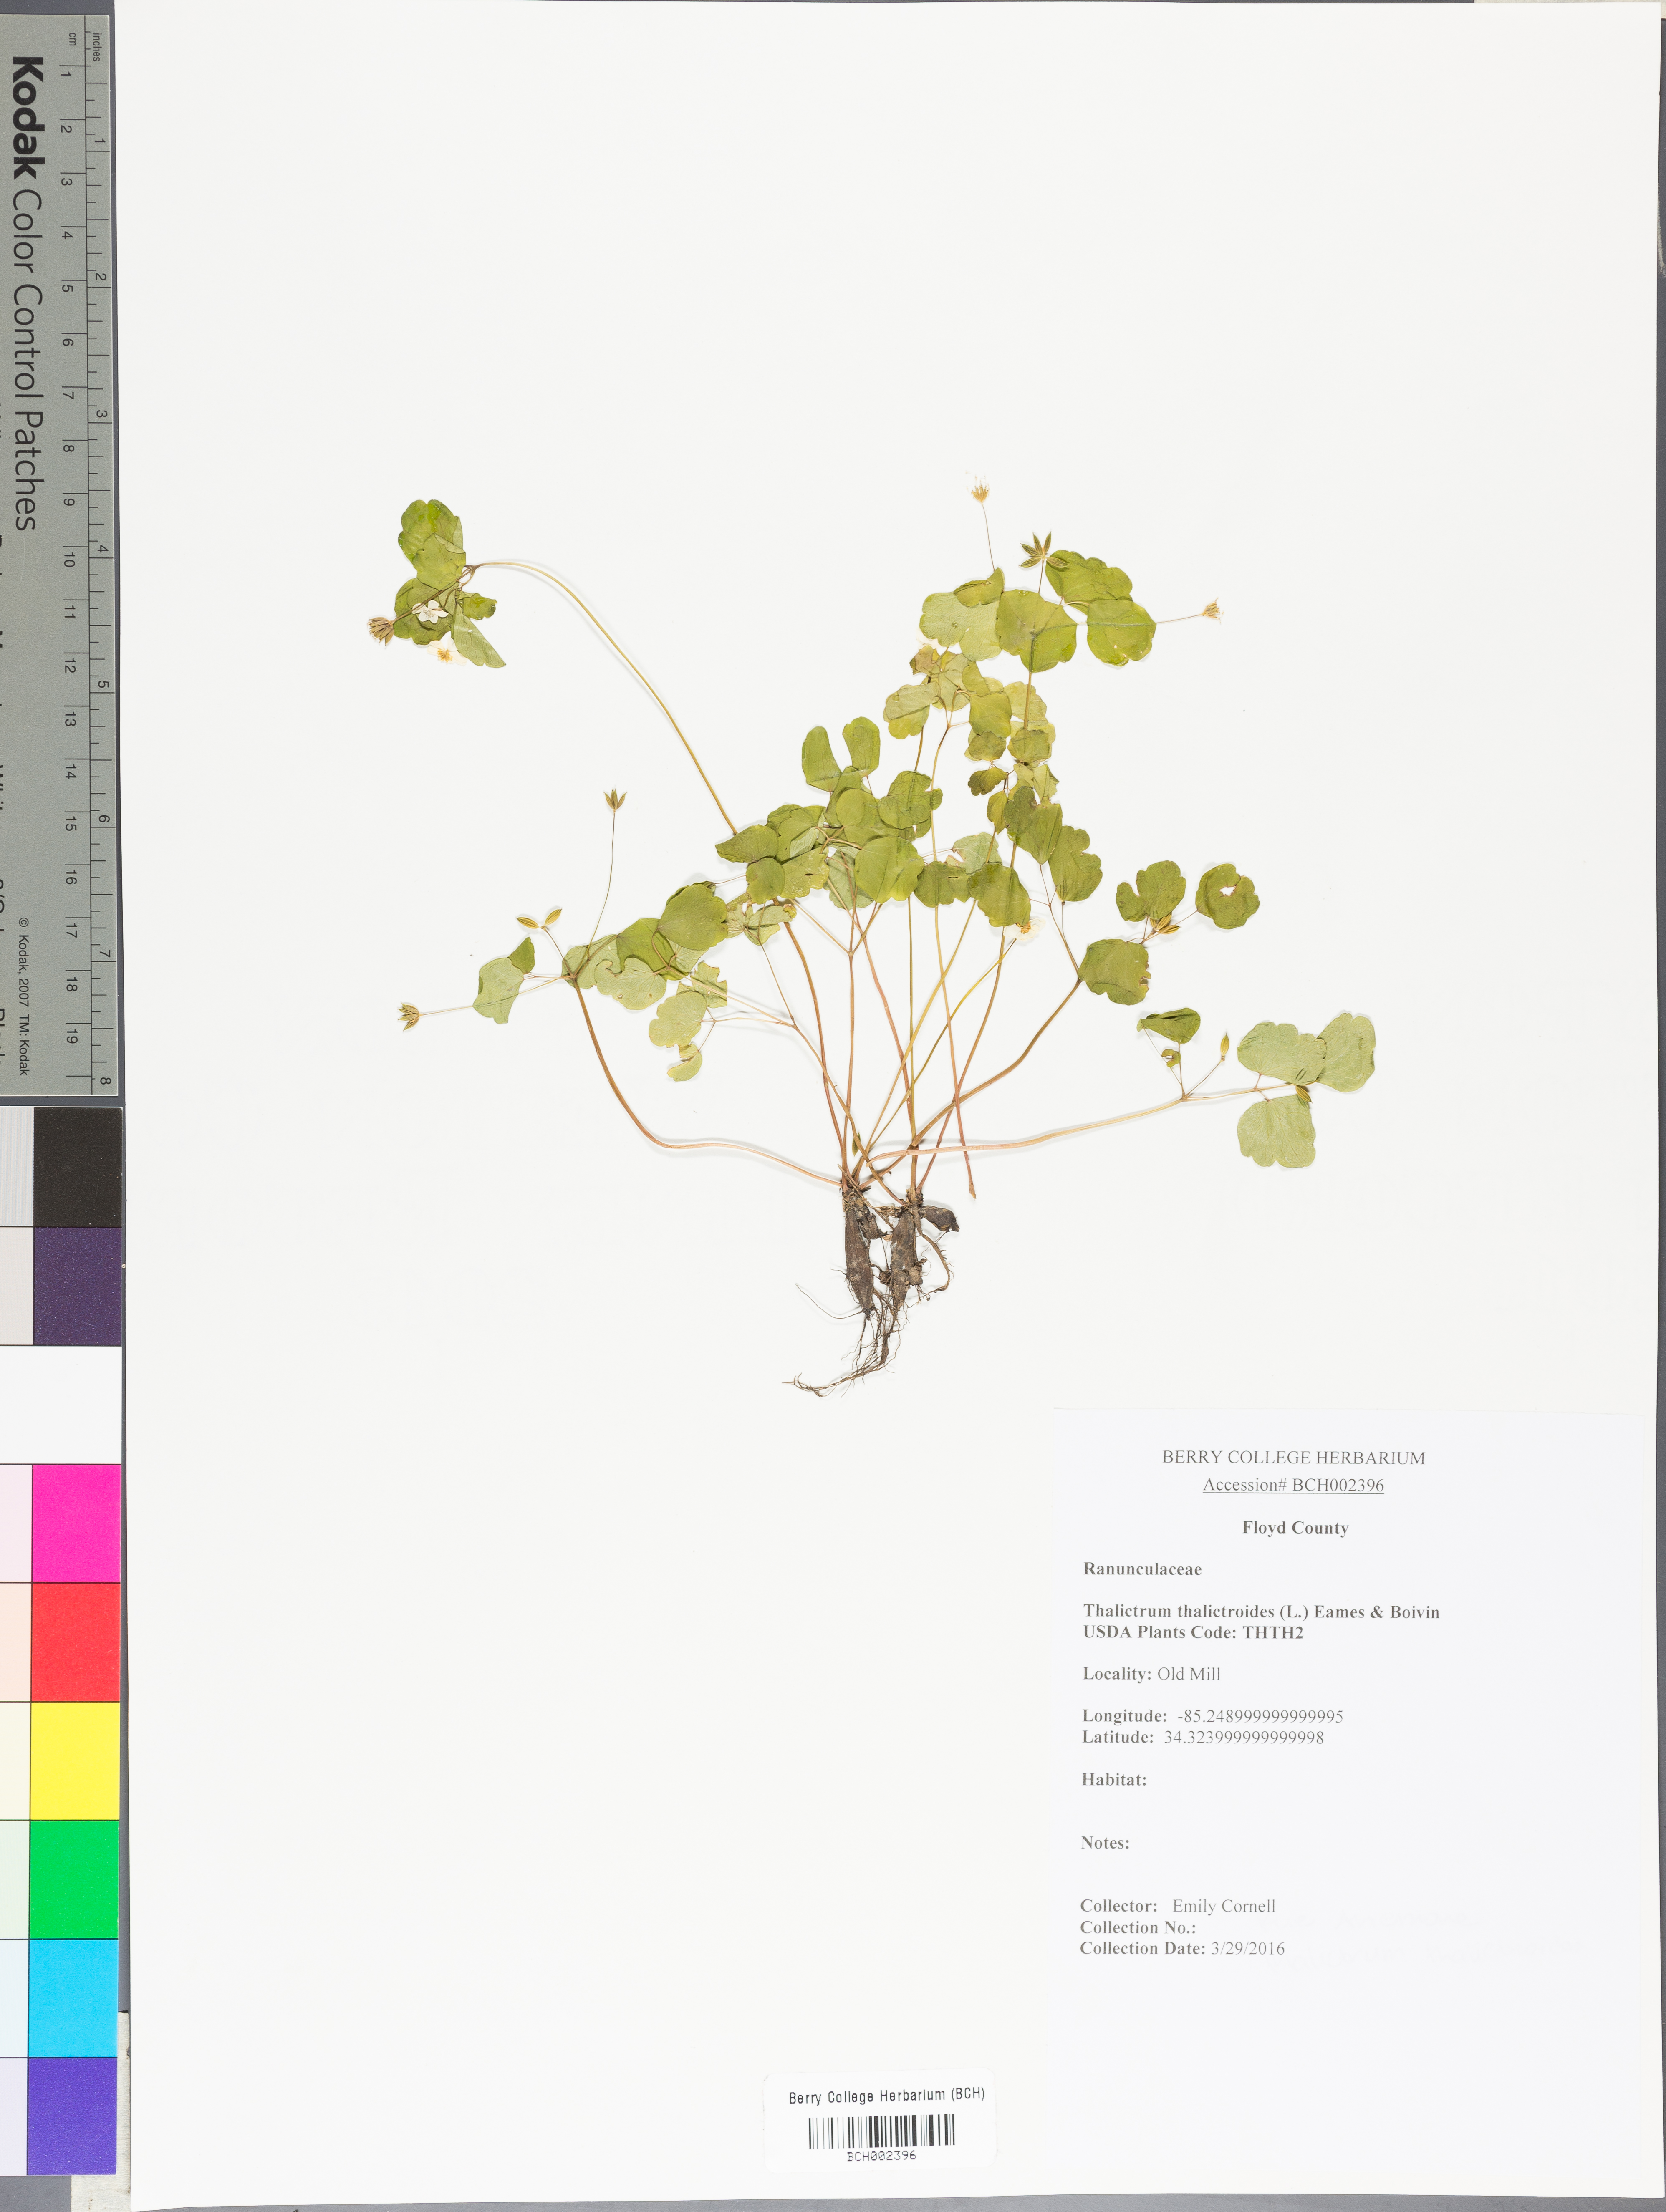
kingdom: Plantae
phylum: Tracheophyta
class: Magnoliopsida
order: Ranunculales
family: Ranunculaceae
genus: Thalictrum
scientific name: Thalictrum thalictroides
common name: Rue-anemone
